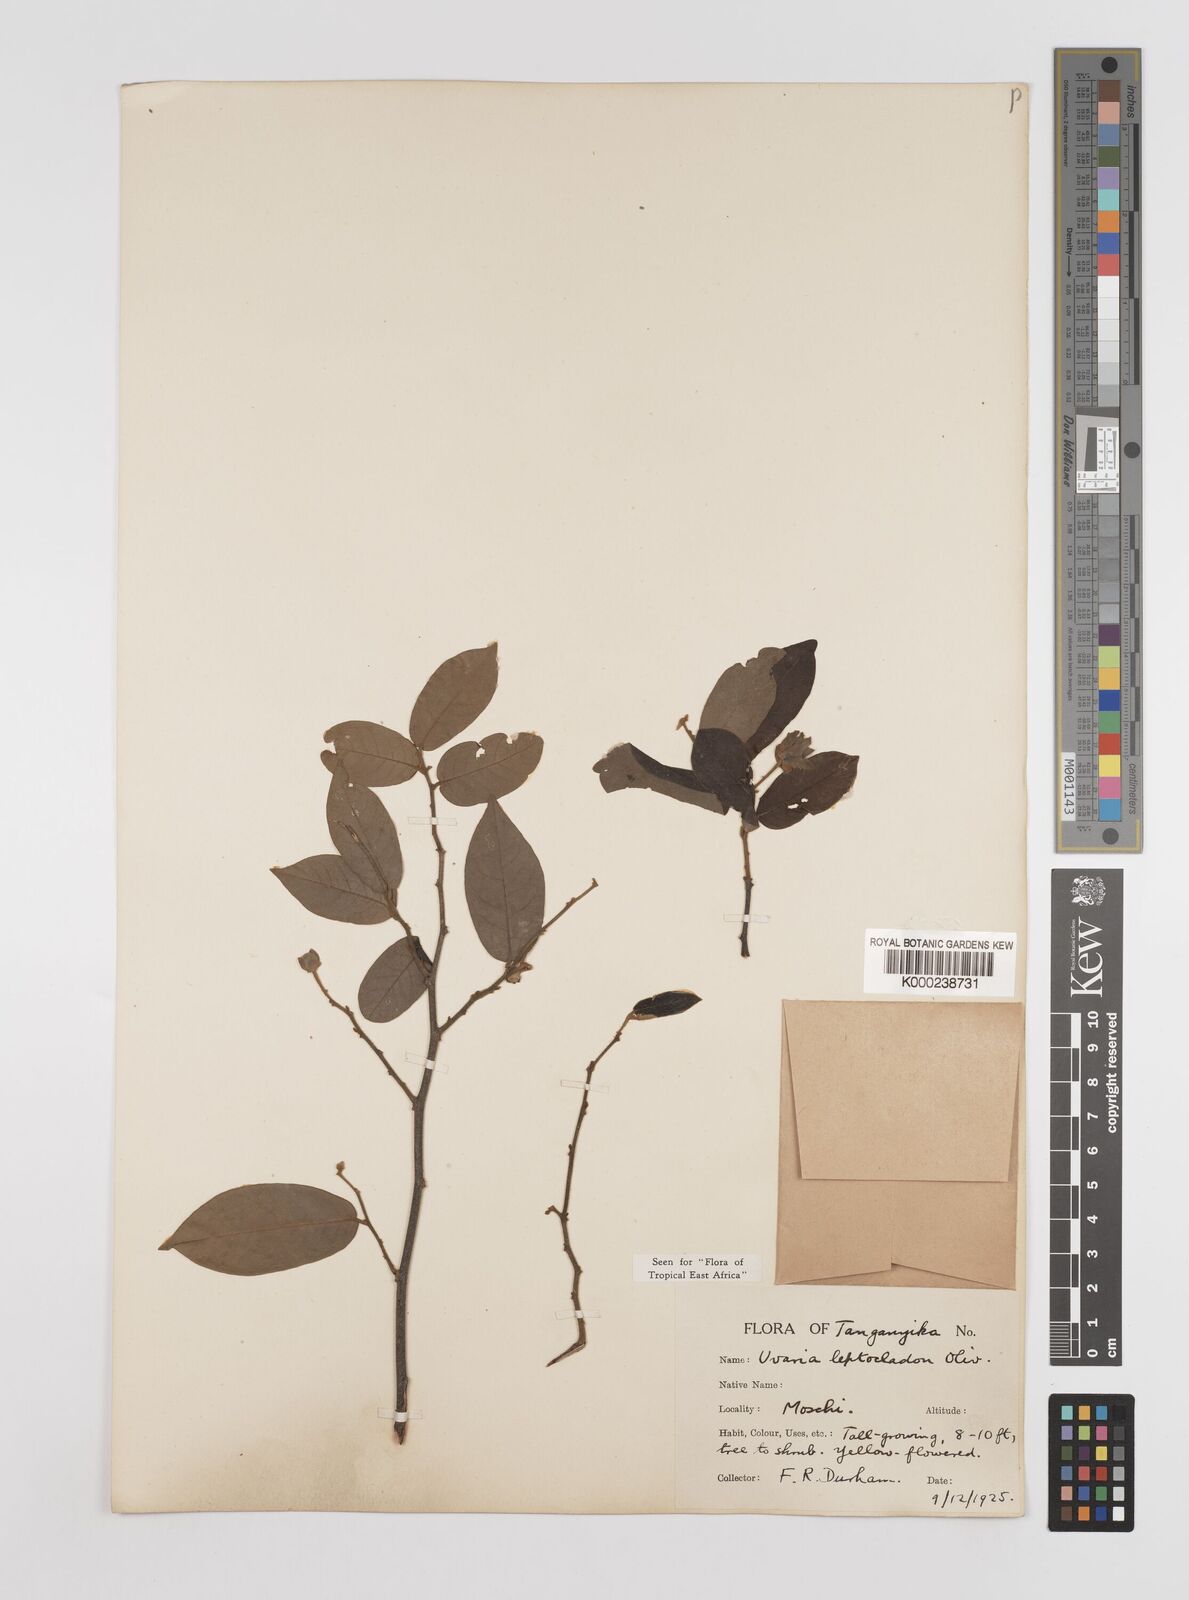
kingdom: Plantae
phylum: Tracheophyta
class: Magnoliopsida
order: Magnoliales
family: Annonaceae
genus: Uvaria
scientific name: Uvaria leptocladon
